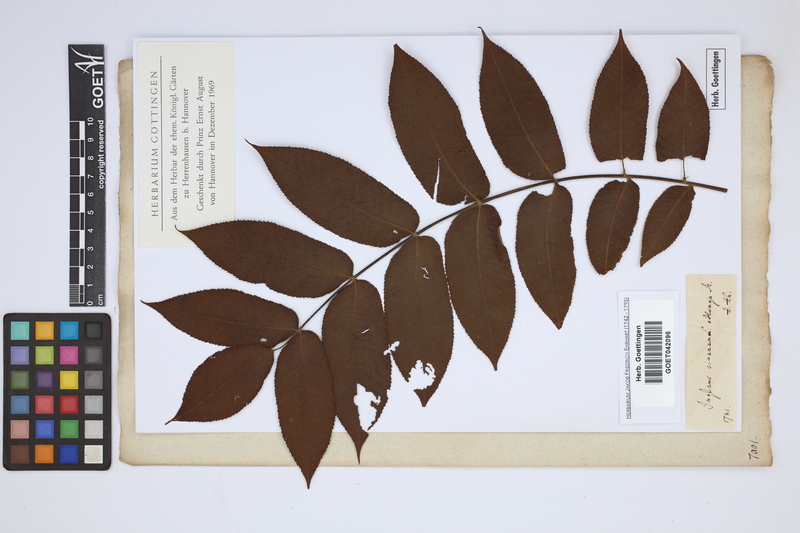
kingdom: Plantae
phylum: Tracheophyta
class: Magnoliopsida
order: Fagales
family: Juglandaceae
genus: Juglans
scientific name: Juglans cinerea
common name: Butternut
